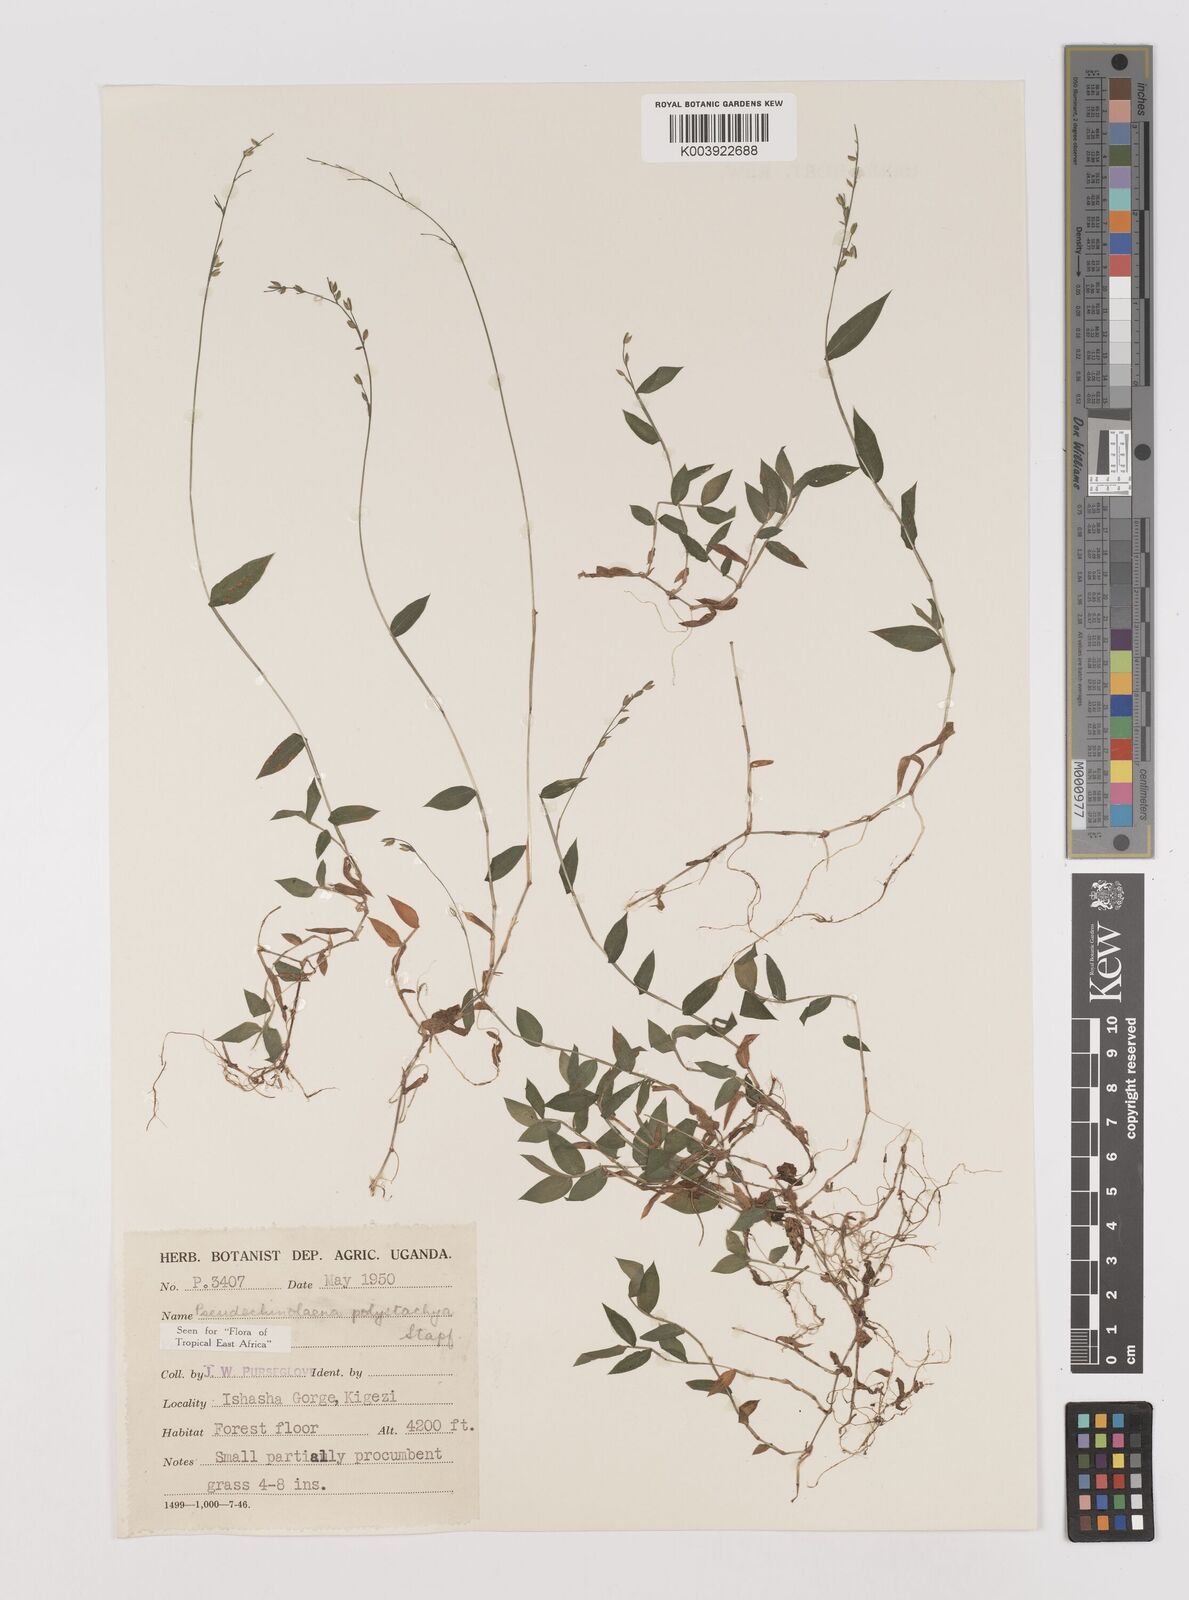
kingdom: Plantae
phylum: Tracheophyta
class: Liliopsida
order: Poales
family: Poaceae
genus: Pseudechinolaena
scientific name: Pseudechinolaena polystachya
